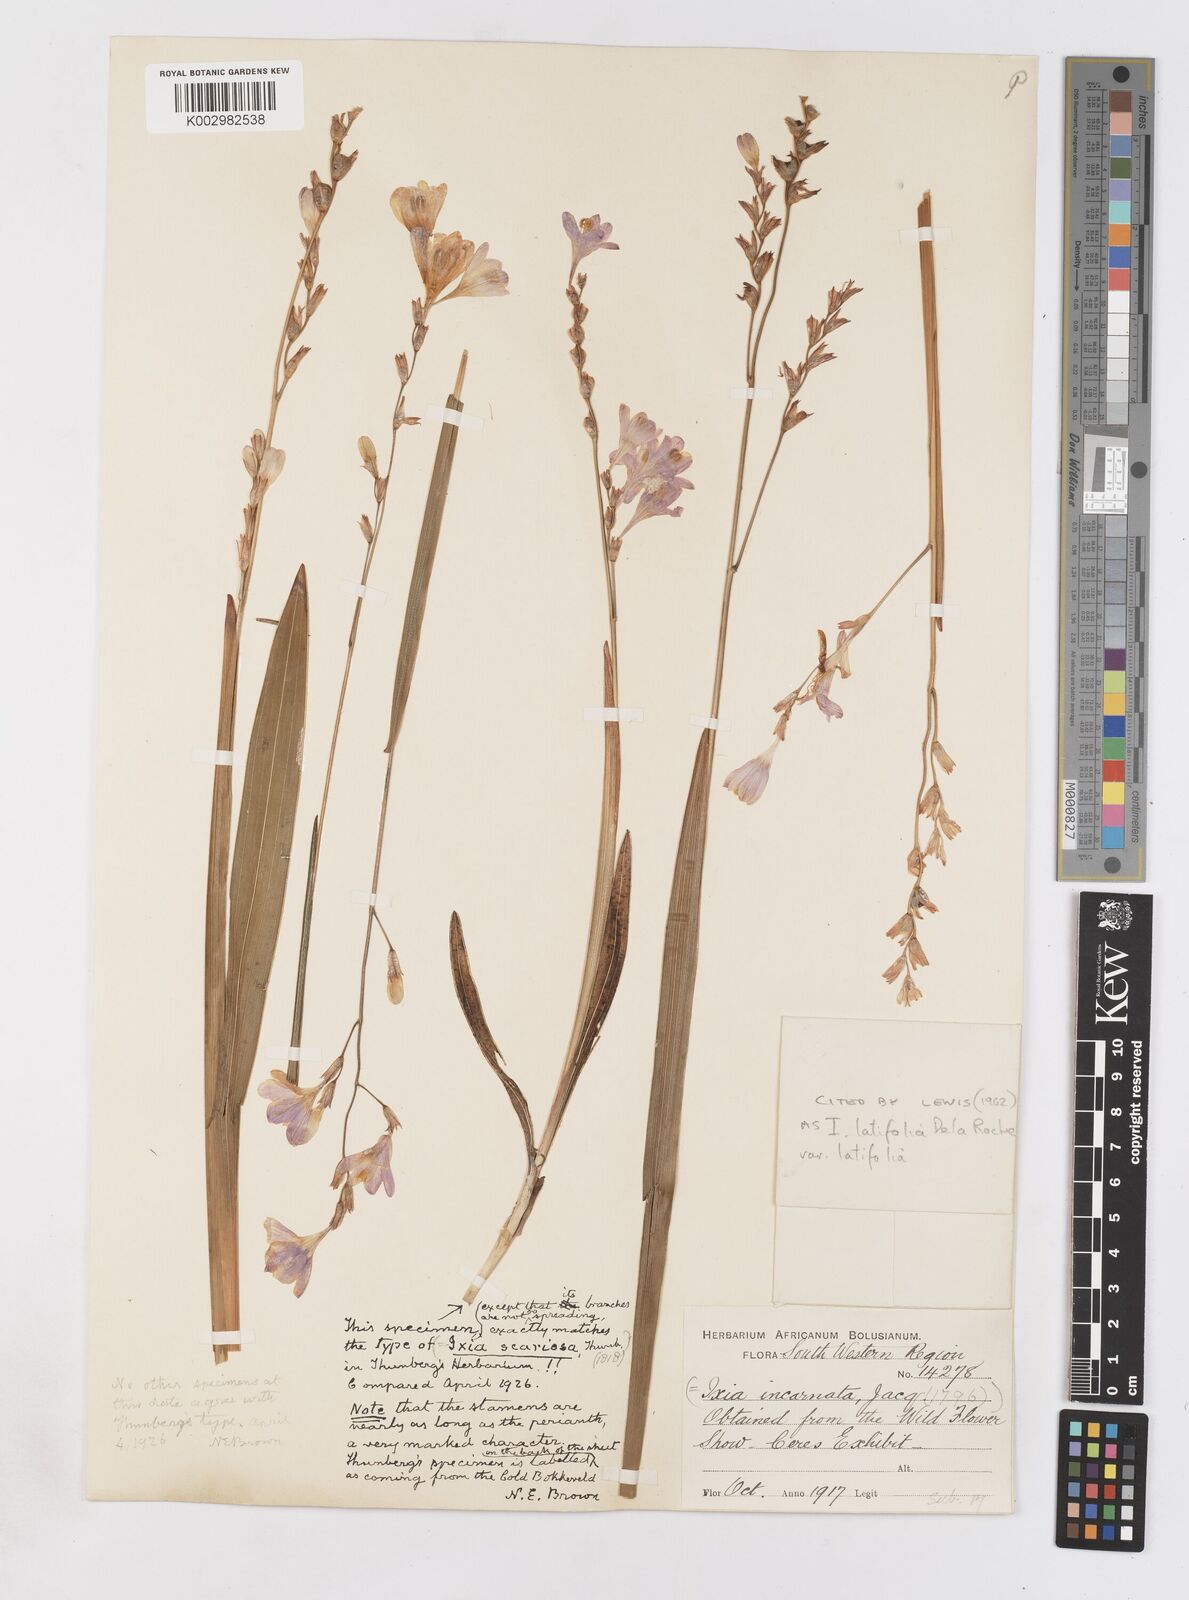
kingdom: Plantae
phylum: Tracheophyta
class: Liliopsida
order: Asparagales
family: Iridaceae
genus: Ixia
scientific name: Ixia latifolia
